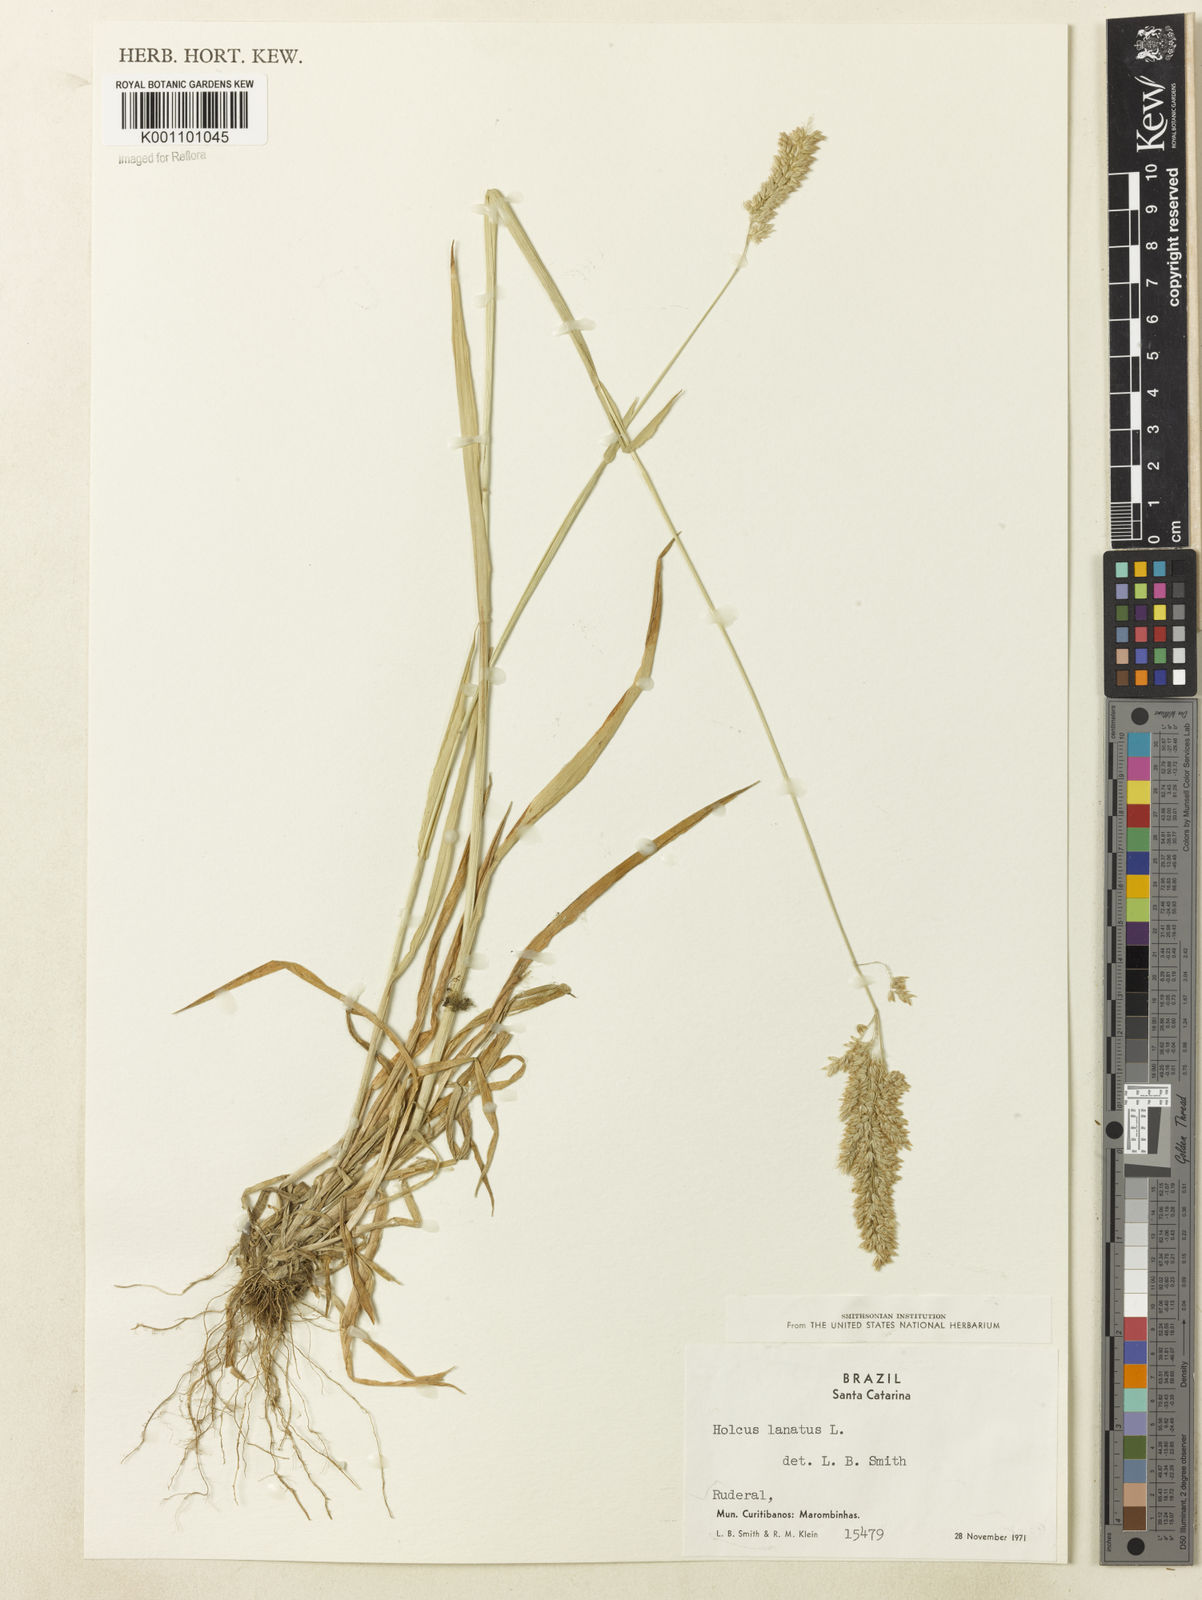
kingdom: Plantae
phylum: Tracheophyta
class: Liliopsida
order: Poales
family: Poaceae
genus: Holcus
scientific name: Holcus lanatus
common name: Yorkshire-fog
